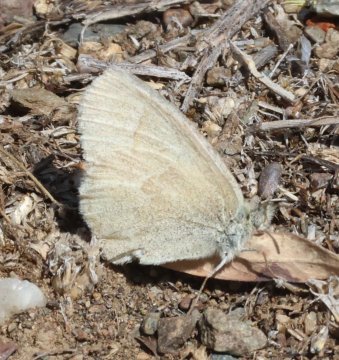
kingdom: Animalia
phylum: Arthropoda
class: Insecta
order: Lepidoptera
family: Nymphalidae
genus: Coenonympha
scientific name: Coenonympha tullia
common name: Large Heath
